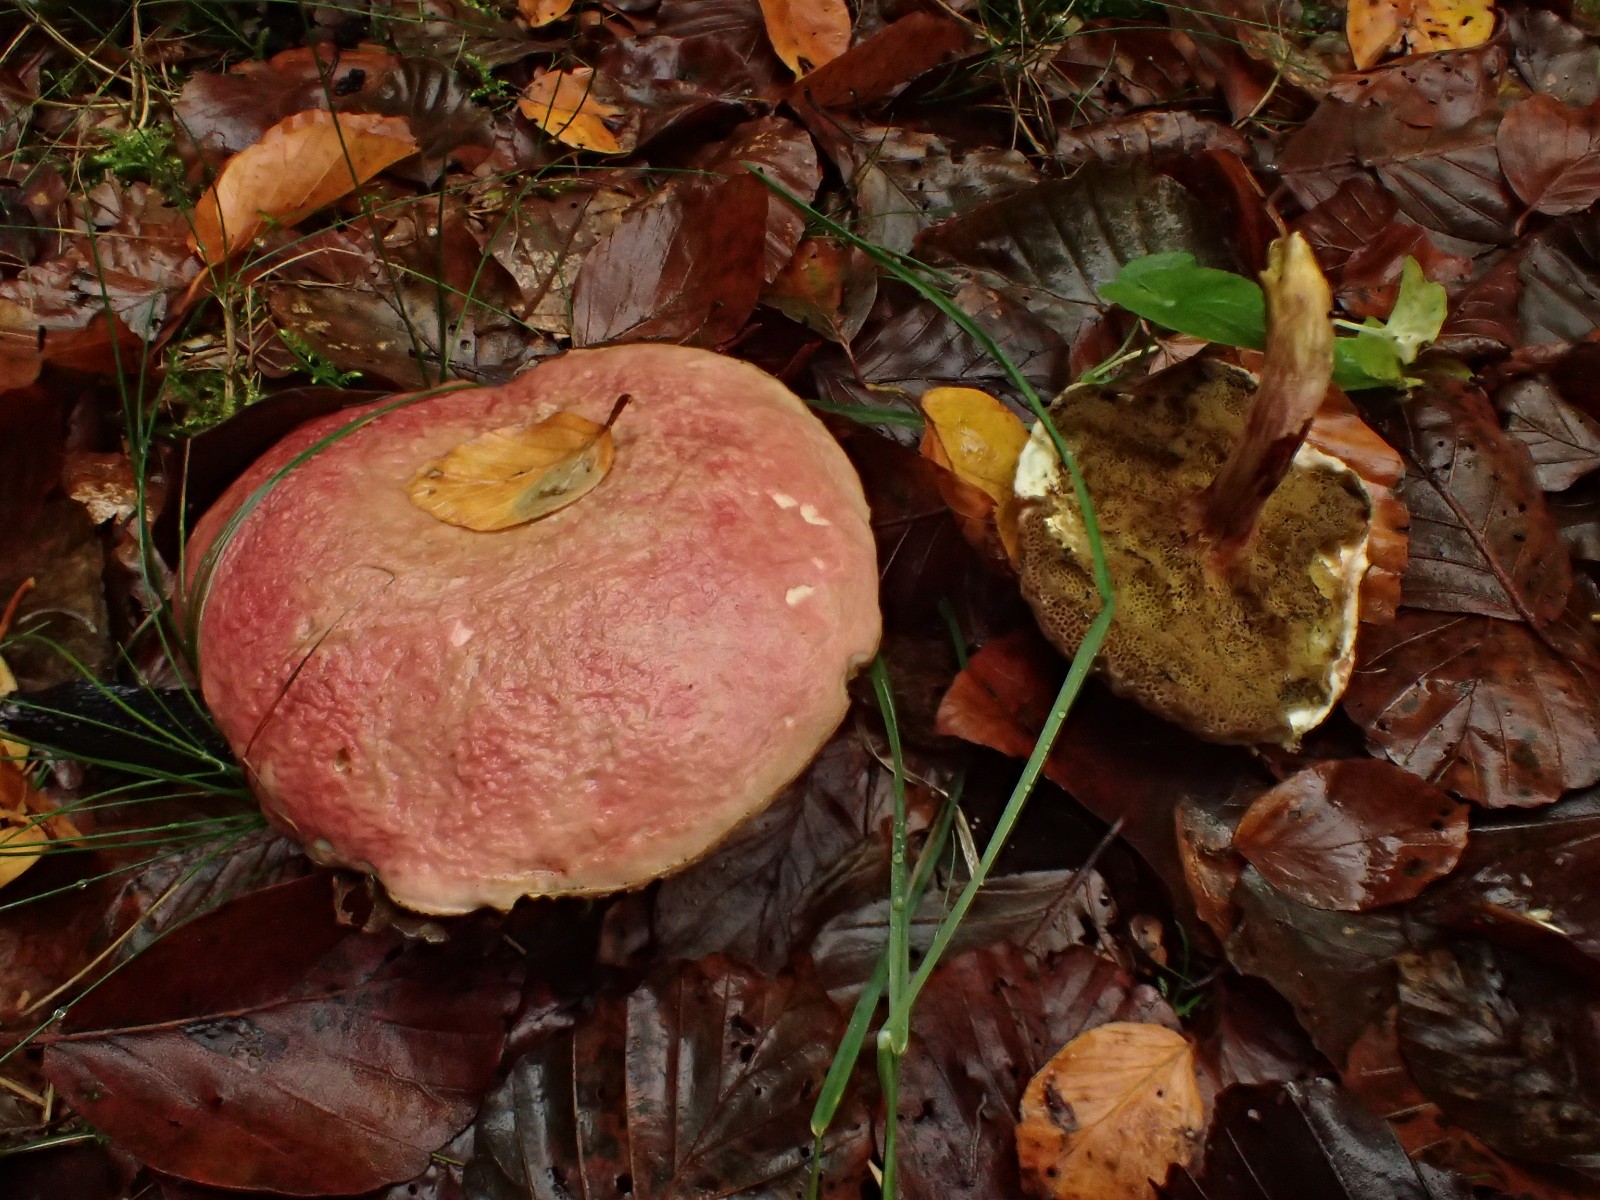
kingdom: Fungi
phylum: Basidiomycota
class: Agaricomycetes
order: Boletales
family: Boletaceae
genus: Hortiboletus
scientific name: Hortiboletus rubellus
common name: blodrød rørhat
